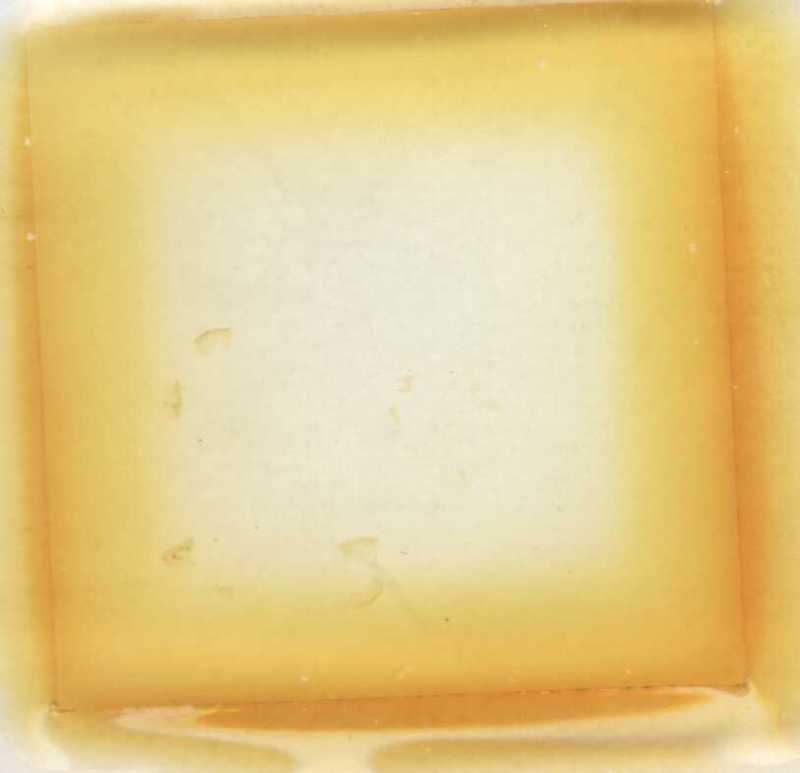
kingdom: Animalia
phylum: Arthropoda
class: Diplopoda
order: Glomerida
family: Glomeridae
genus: Trachysphaera
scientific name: Trachysphaera varallensis
